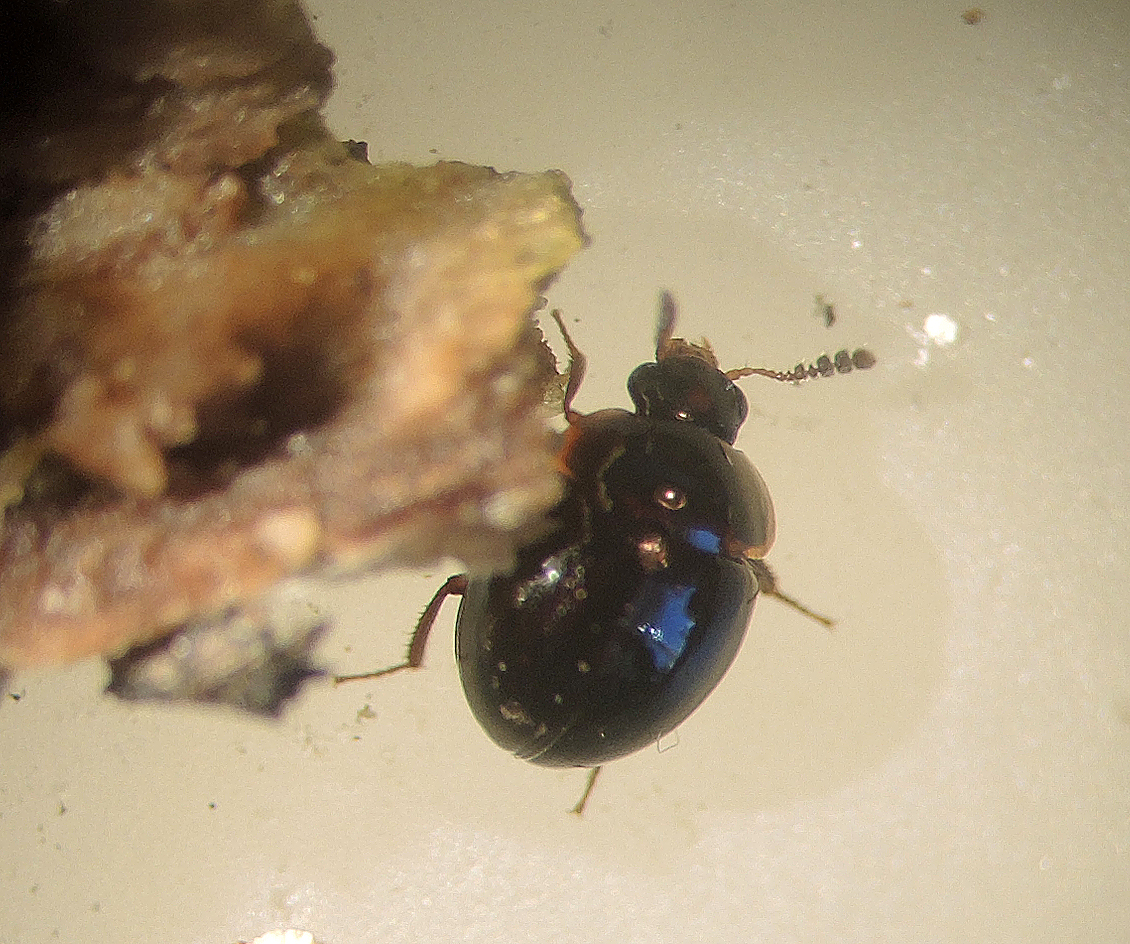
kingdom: Protozoa
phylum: Mycetozoa
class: Myxomycetes
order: Stemonitidales
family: Stemonitidaceae
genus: Stemonitopsis
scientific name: Stemonitopsis typhina
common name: skinnende støvkølle
